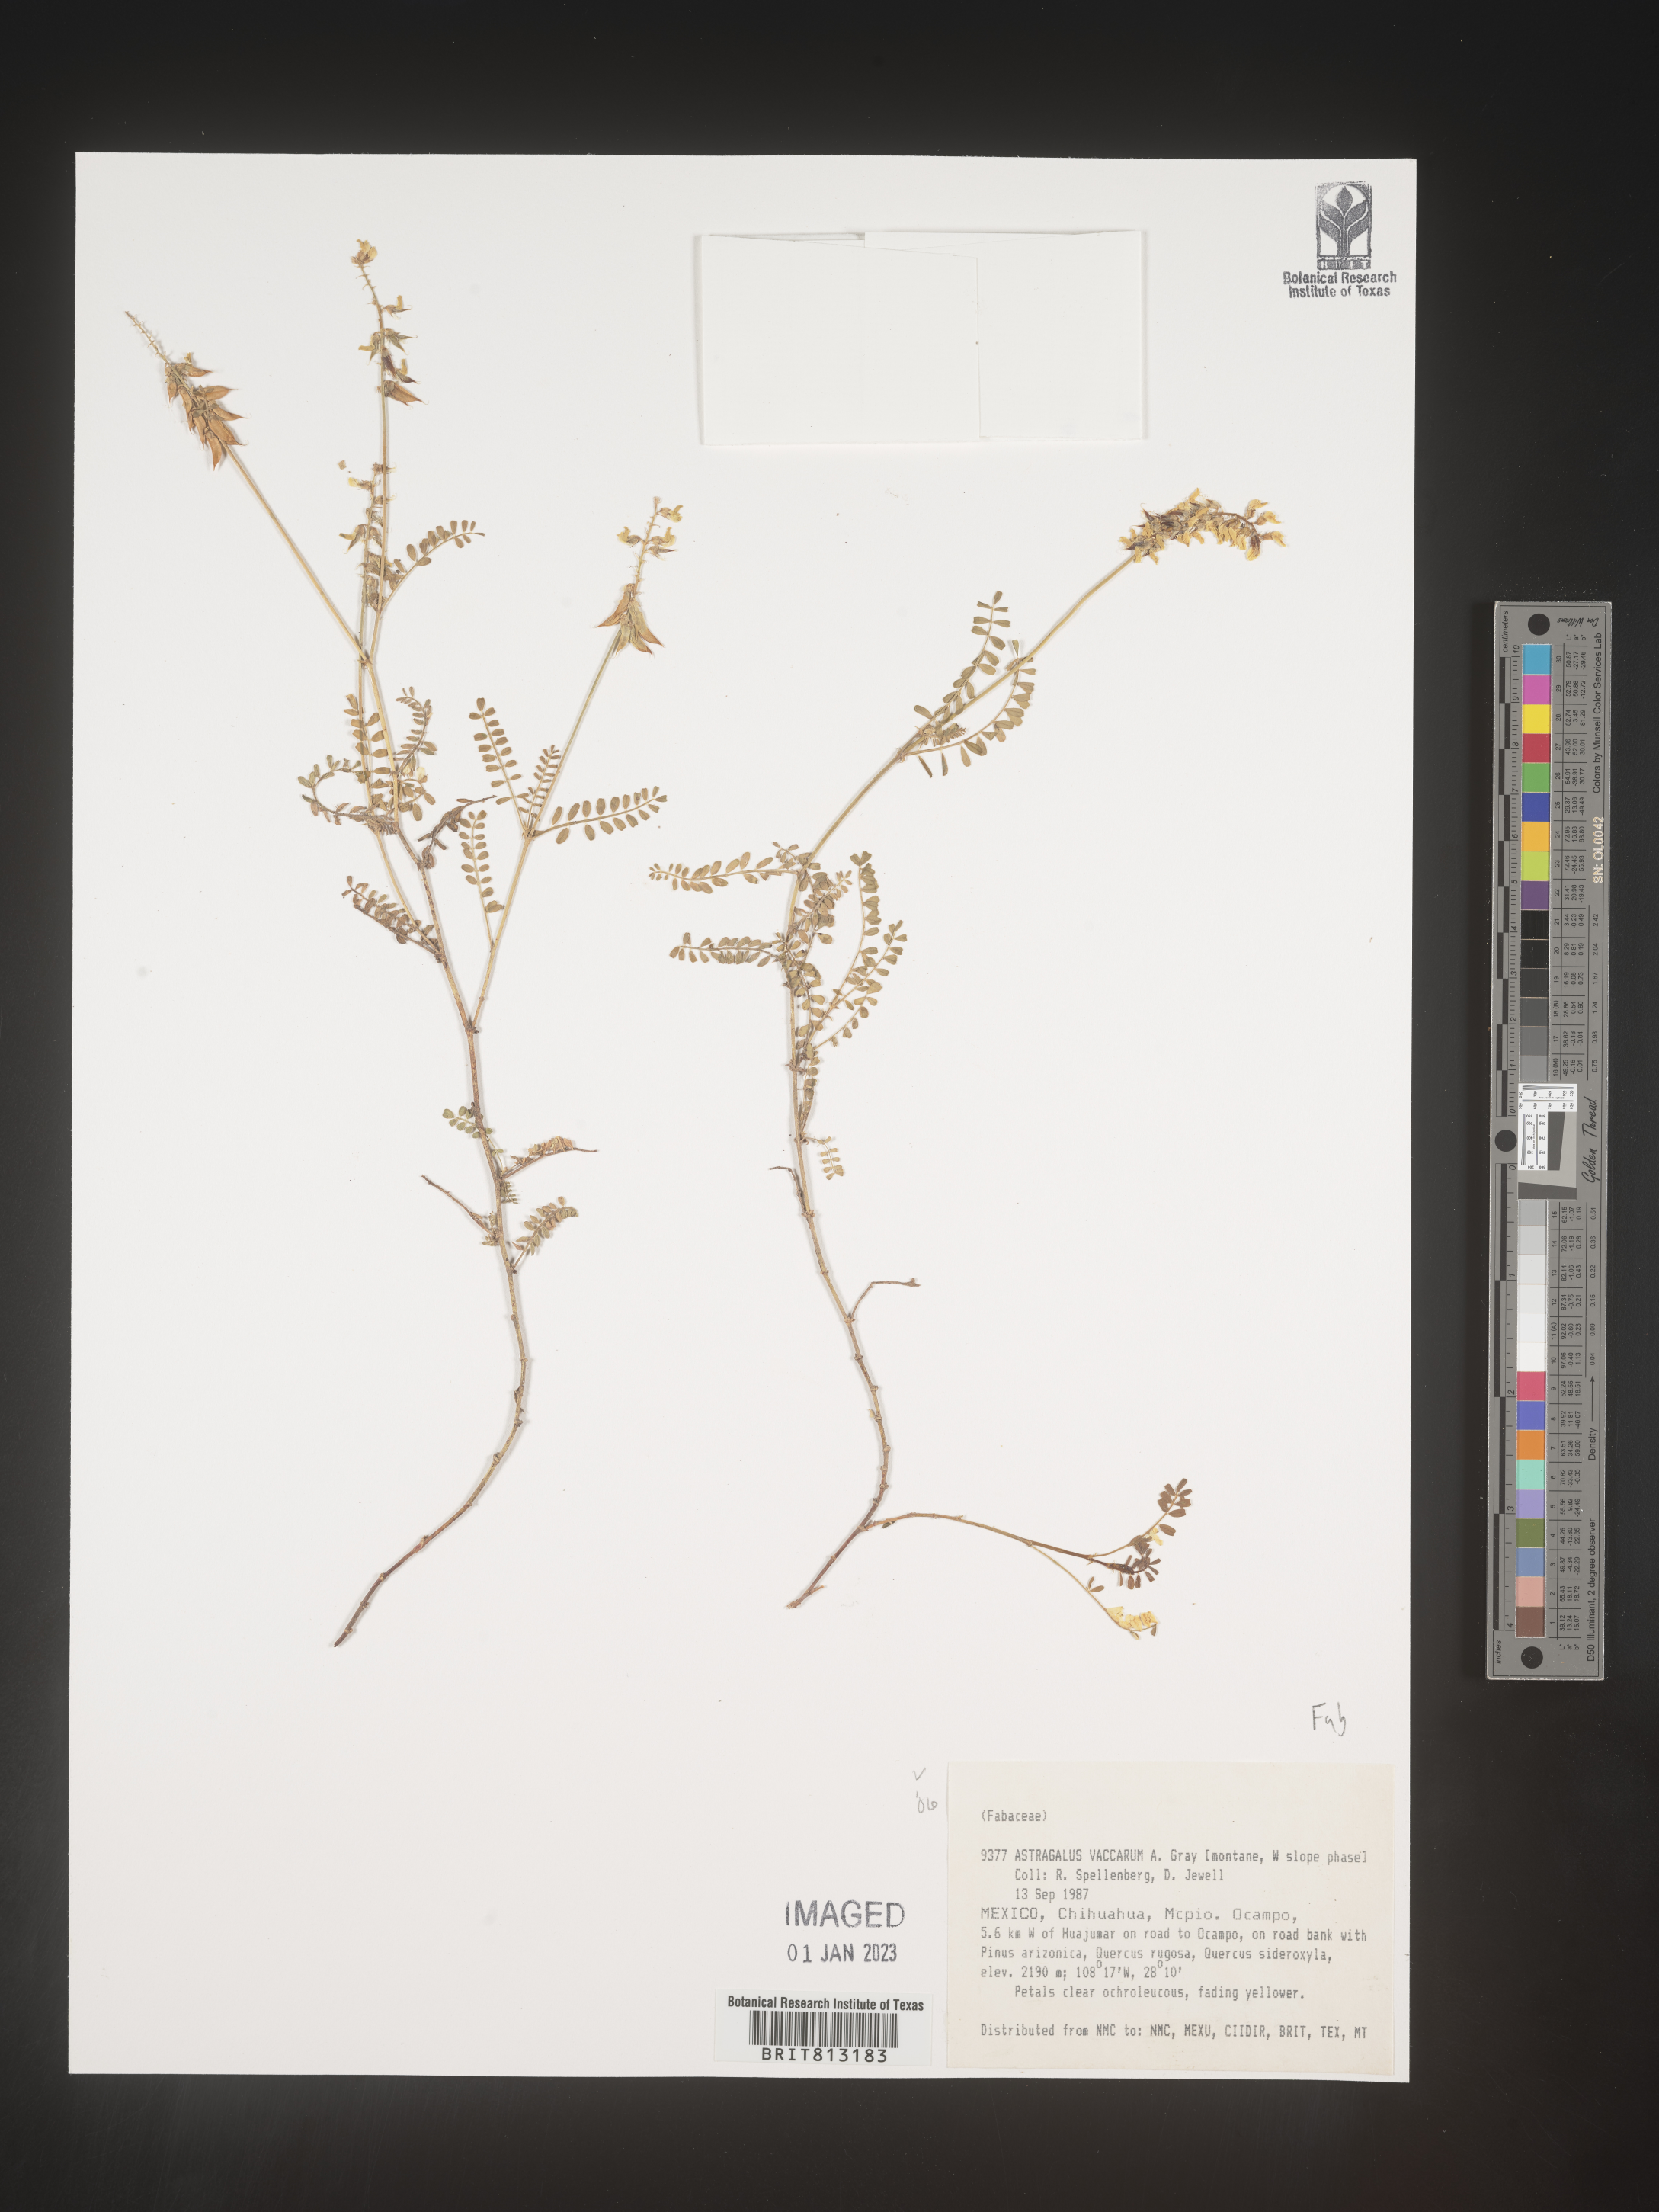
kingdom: Plantae
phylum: Tracheophyta
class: Magnoliopsida
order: Fabales
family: Fabaceae
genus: Astragalus
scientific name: Astragalus
